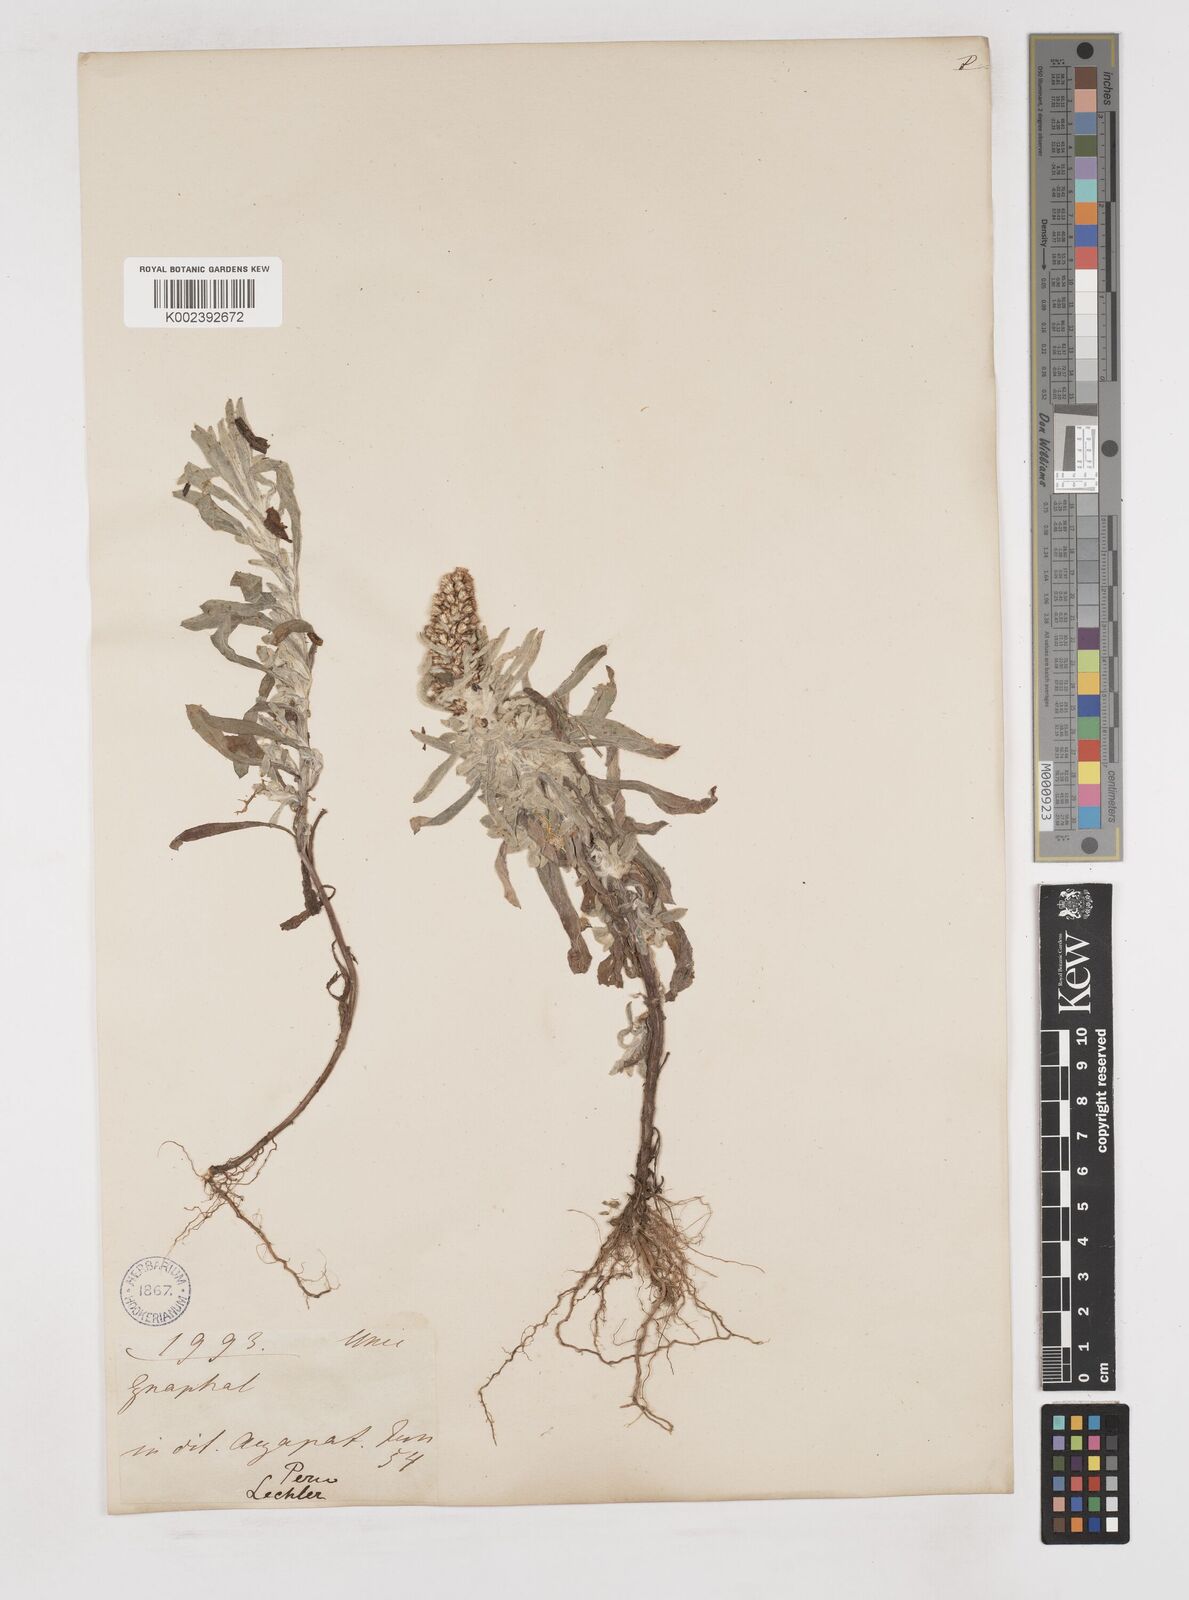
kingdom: Plantae
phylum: Tracheophyta
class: Magnoliopsida
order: Asterales
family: Asteraceae
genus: Gnaphalium
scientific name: Gnaphalium
